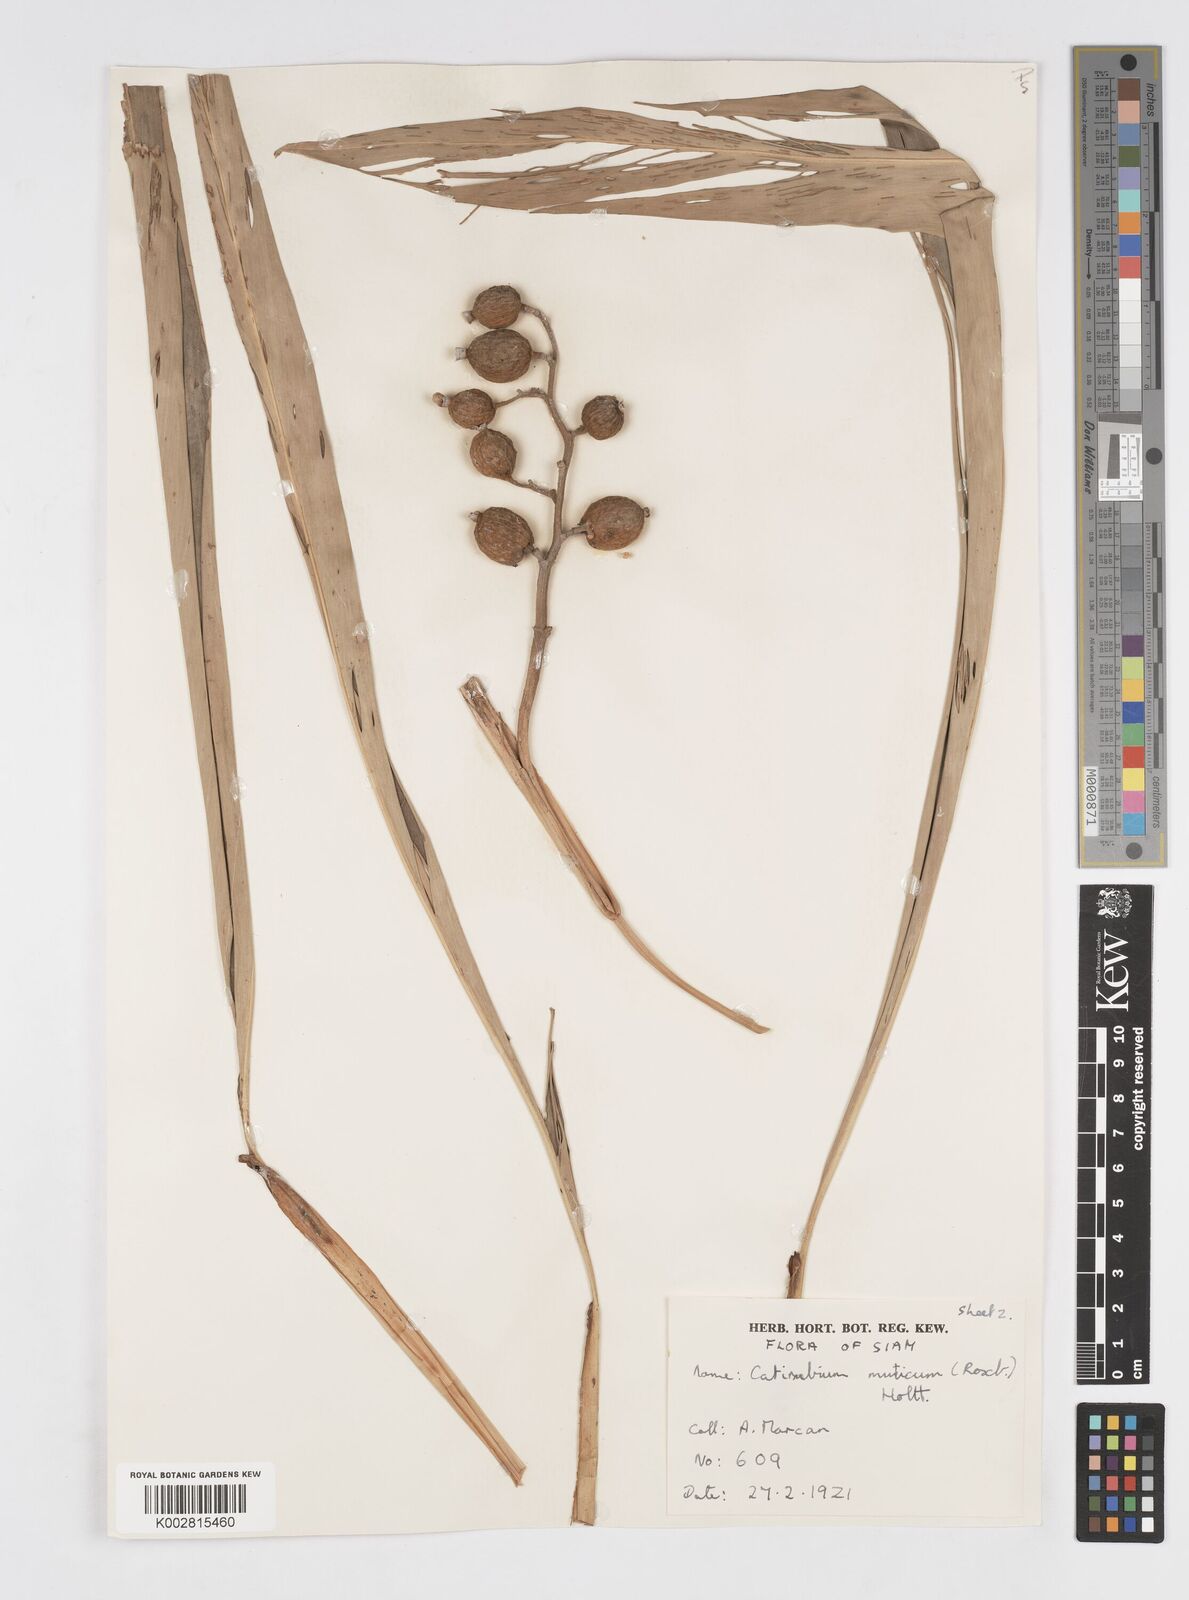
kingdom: Plantae
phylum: Tracheophyta
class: Liliopsida
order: Zingiberales
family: Zingiberaceae
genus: Alpinia
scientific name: Alpinia mutica
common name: Small shell ginger
